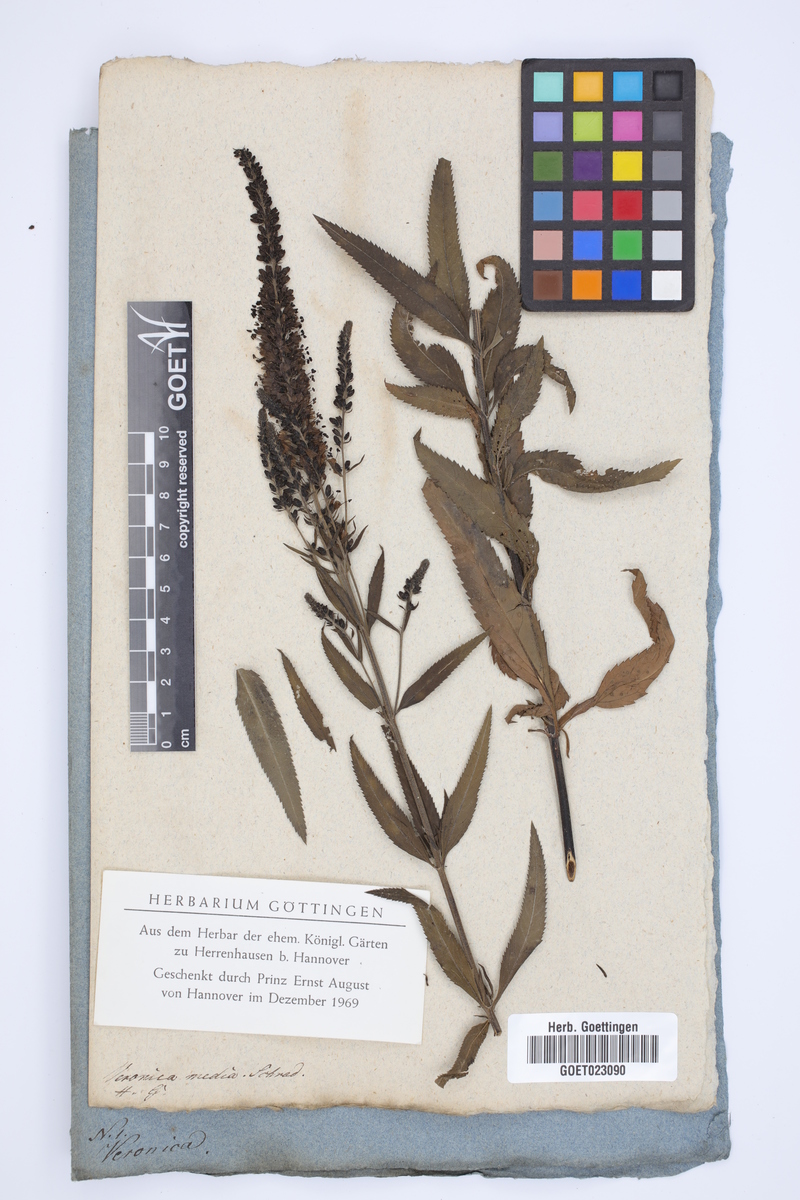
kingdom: Plantae
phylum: Tracheophyta
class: Magnoliopsida
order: Lamiales
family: Plantaginaceae
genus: Veronica
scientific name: Veronica media
